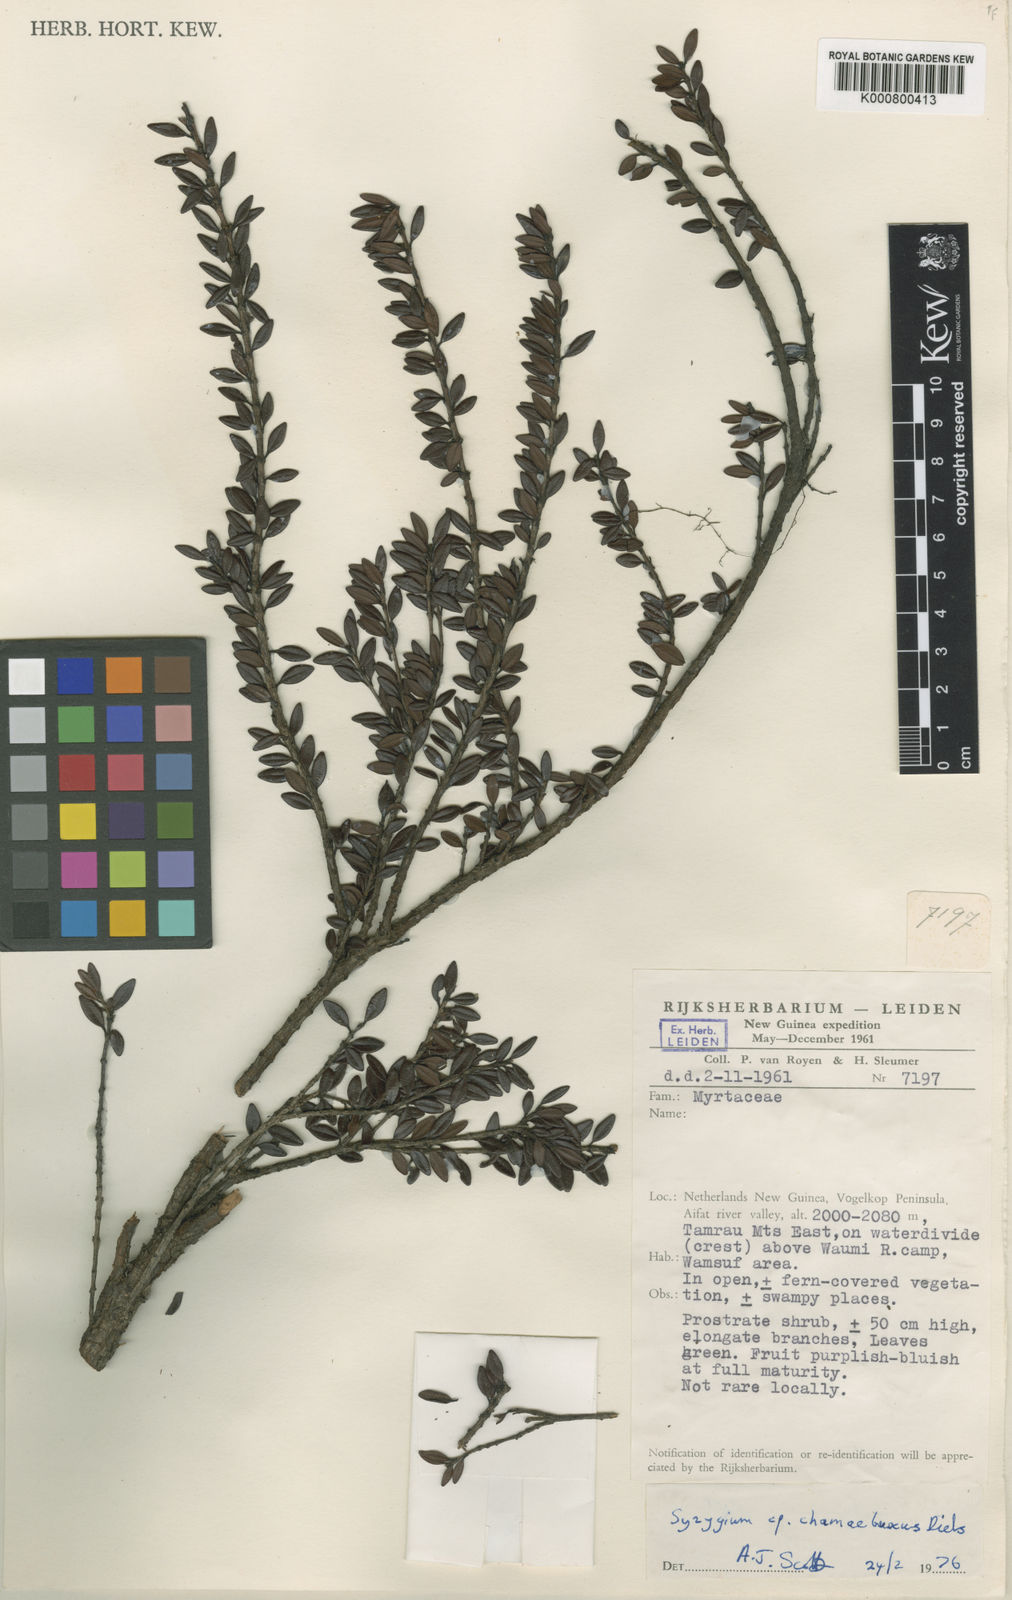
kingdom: Plantae
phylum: Tracheophyta
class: Magnoliopsida
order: Myrtales
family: Myrtaceae
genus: Syzygium
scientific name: Syzygium chamaebuxus
